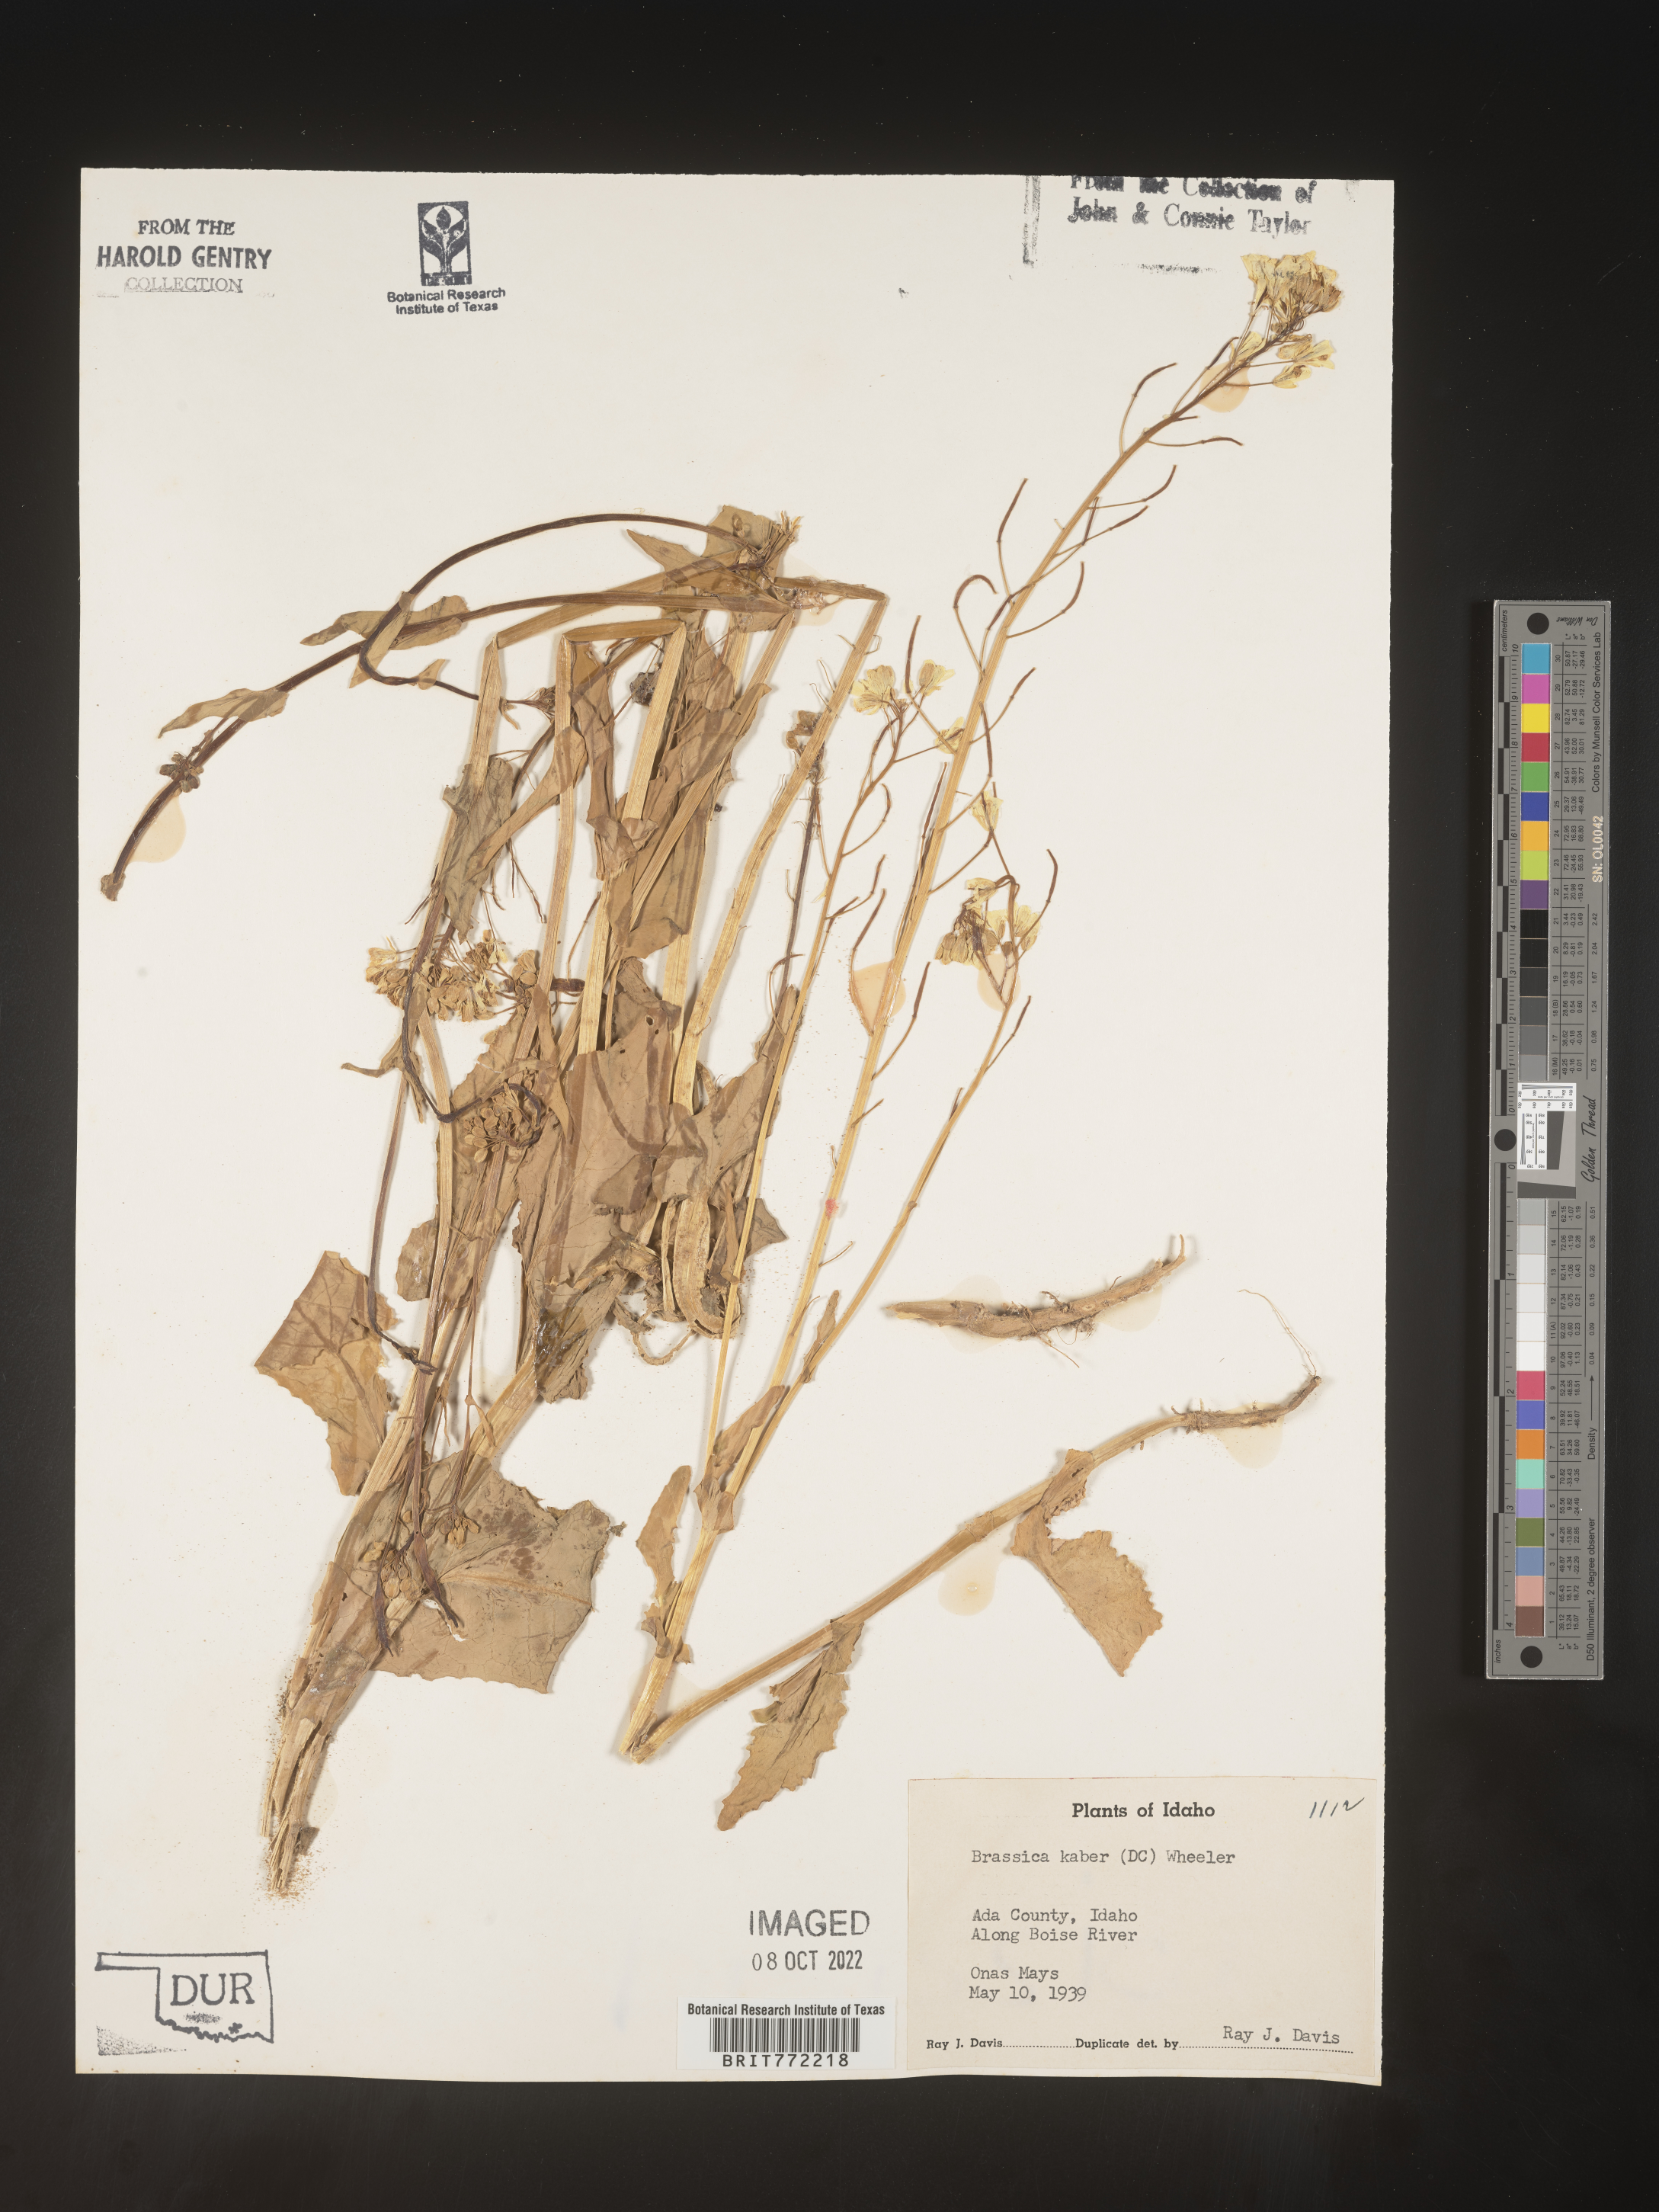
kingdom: Plantae
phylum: Tracheophyta
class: Magnoliopsida
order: Brassicales
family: Brassicaceae
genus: Sinapis
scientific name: Sinapis arvensis
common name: Charlock
